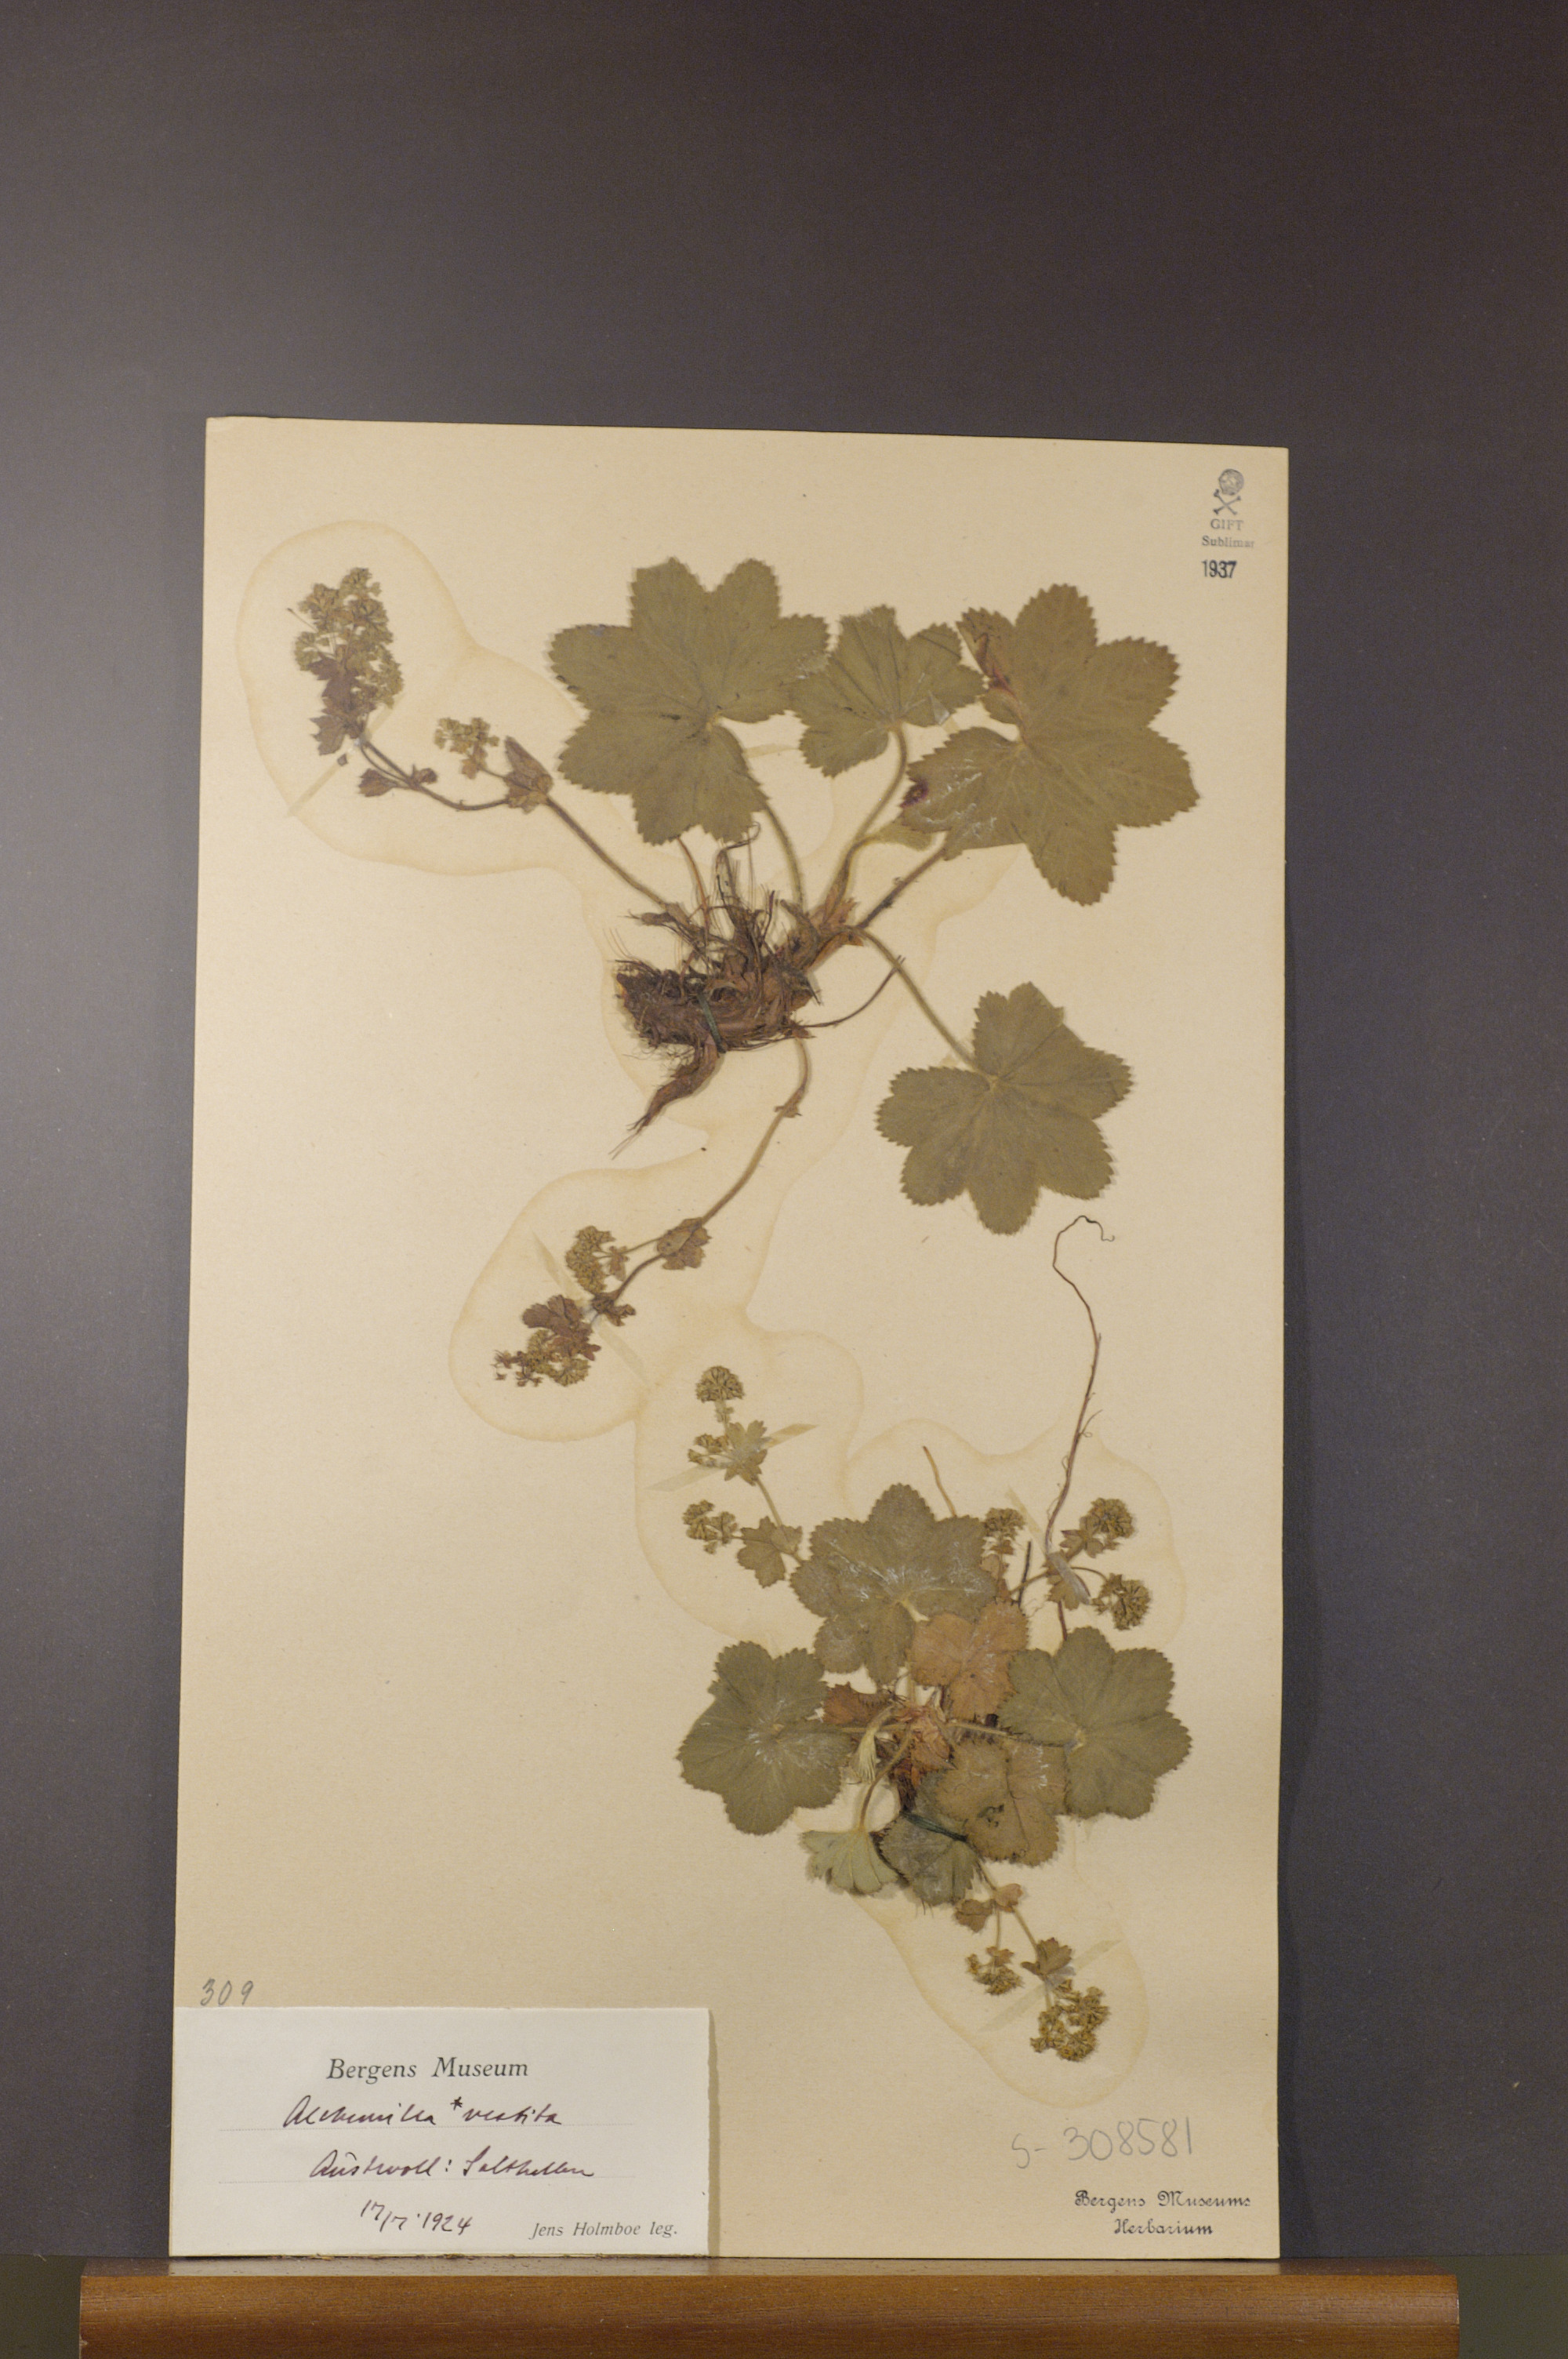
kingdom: Plantae
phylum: Tracheophyta
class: Magnoliopsida
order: Rosales
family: Rosaceae
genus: Alchemilla
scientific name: Alchemilla filicaulis
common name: Hairy lady's-mantle
